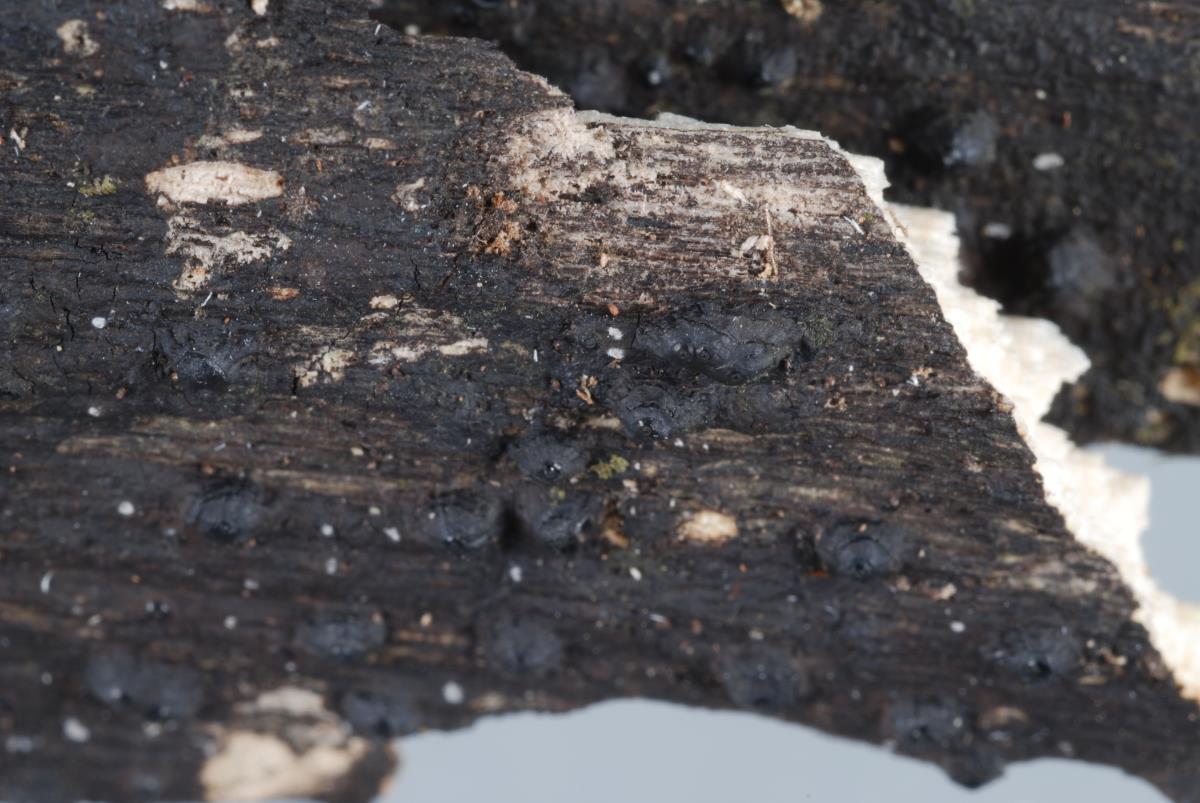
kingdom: Fungi
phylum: Ascomycota
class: Sordariomycetes
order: Xylariales
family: Hypoxylaceae
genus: Annulohypoxylon
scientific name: Annulohypoxylon
